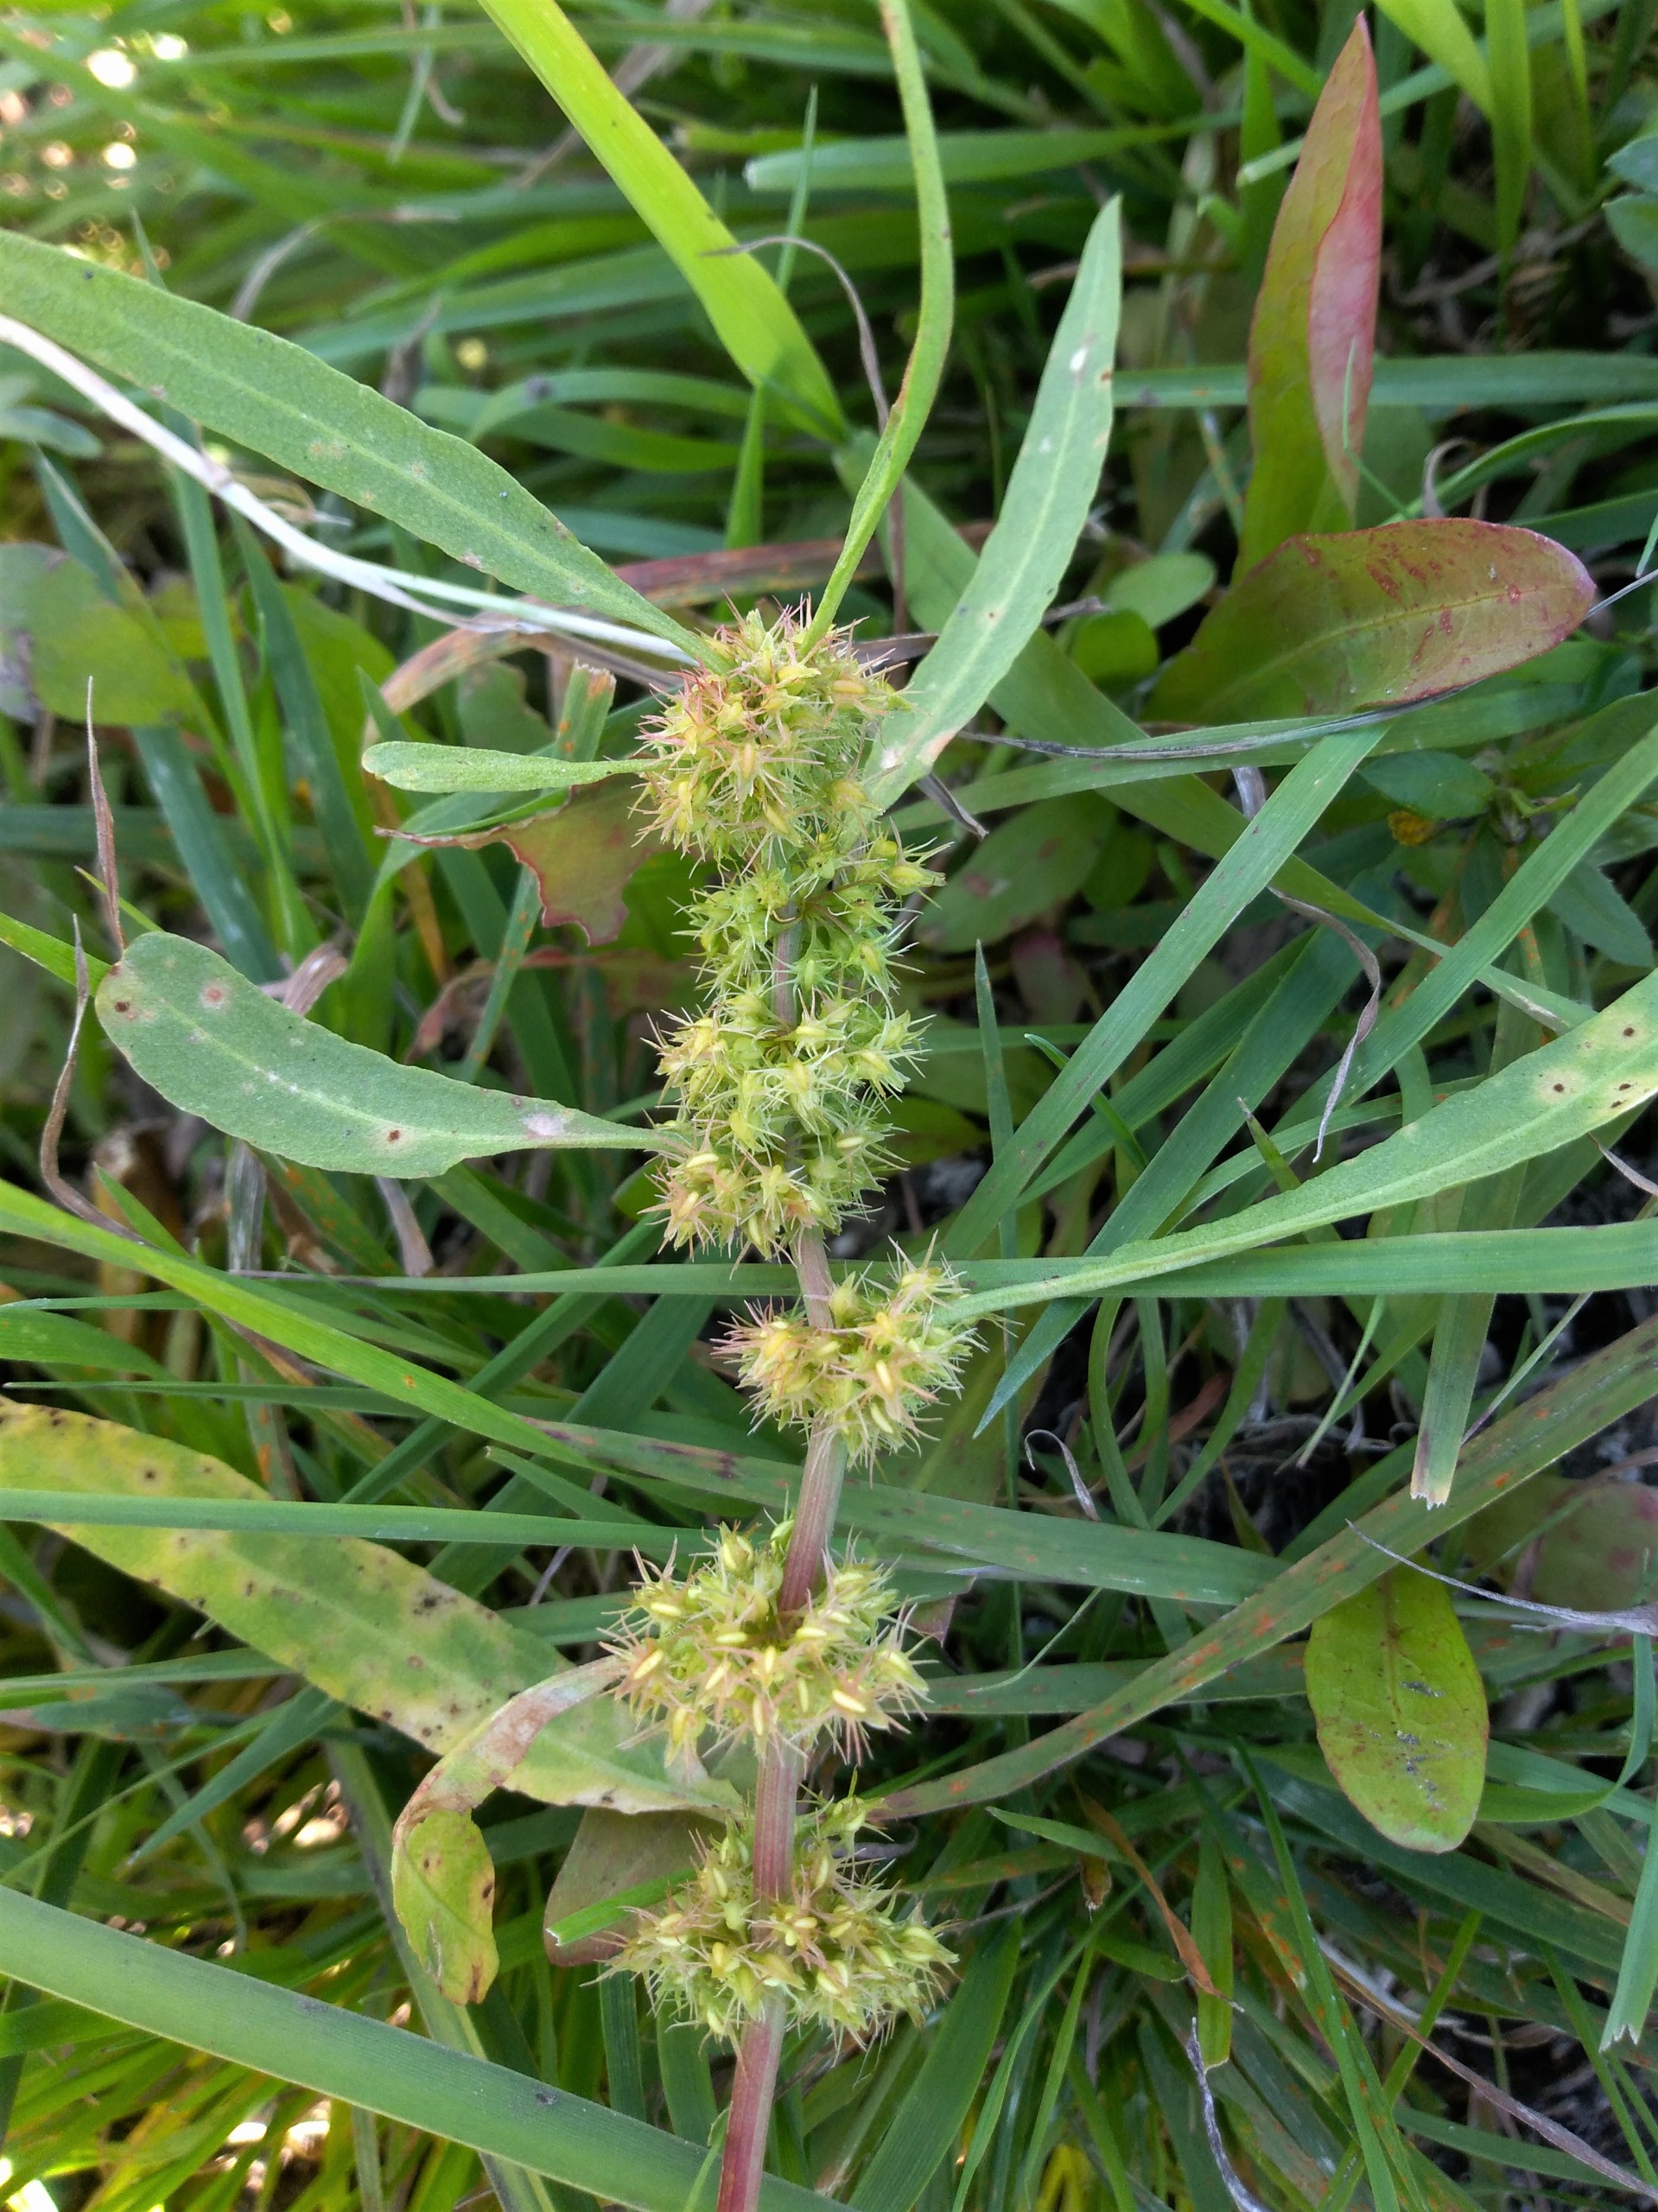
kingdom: Plantae
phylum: Tracheophyta
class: Magnoliopsida
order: Caryophyllales
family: Polygonaceae
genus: Rumex
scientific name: Rumex maritimus
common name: Strand-skræppe
